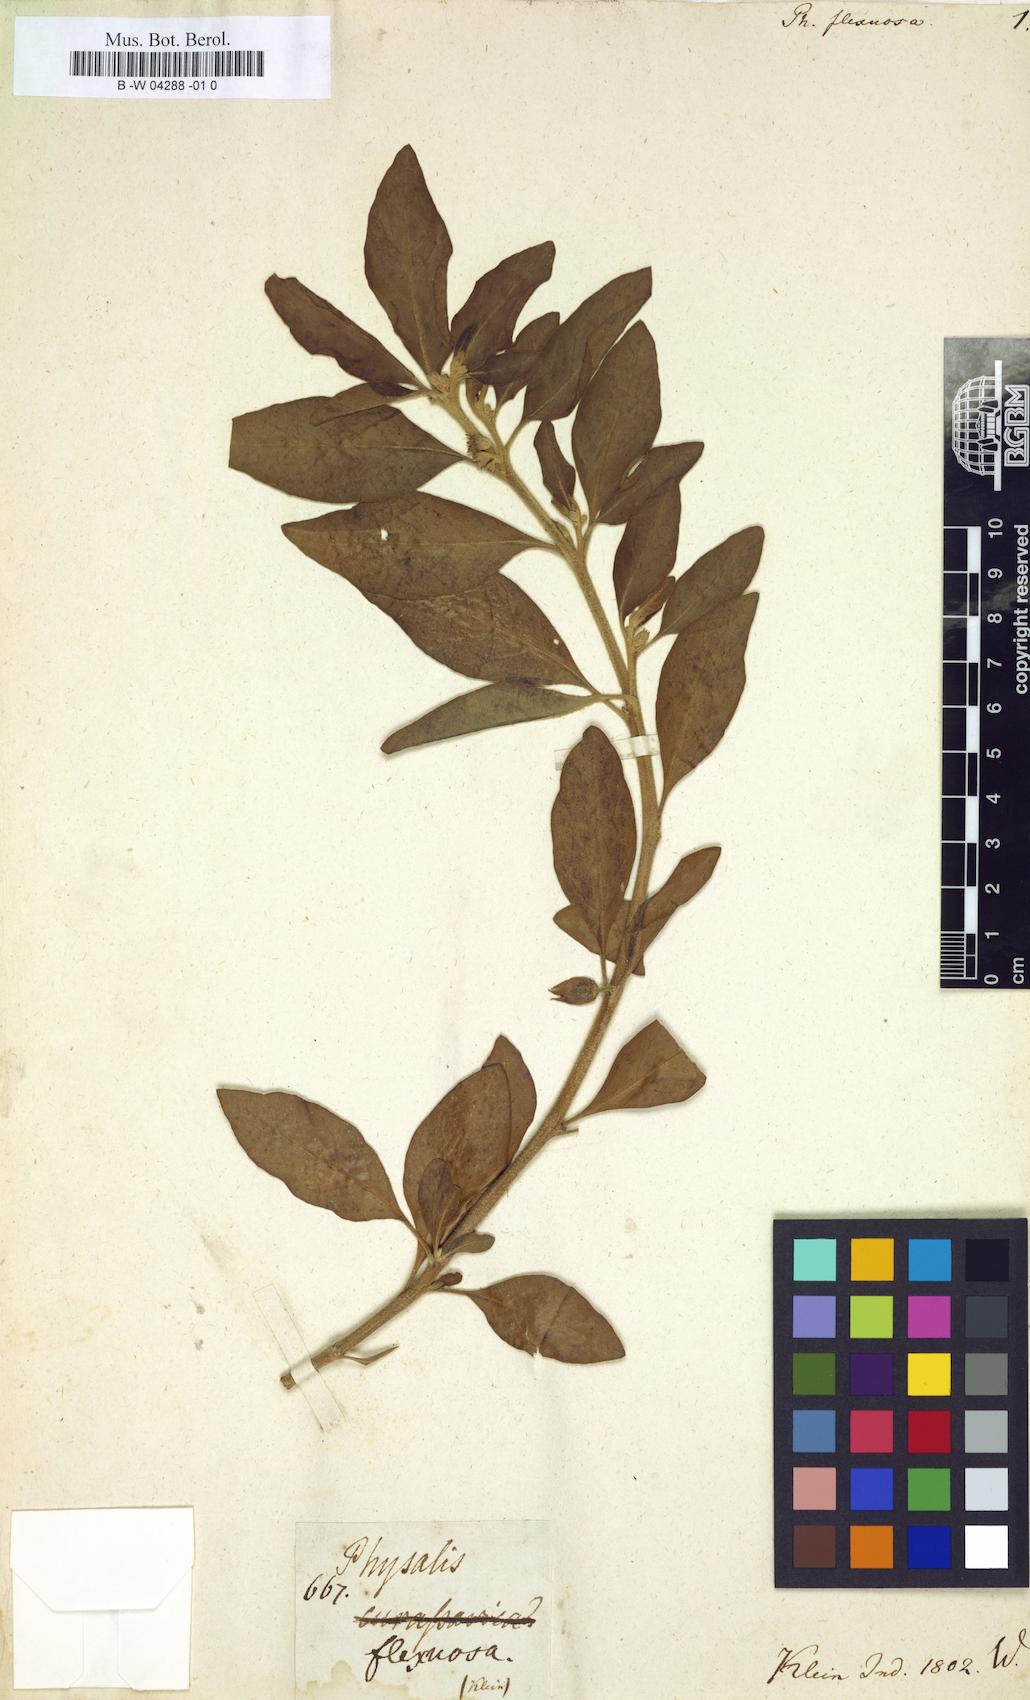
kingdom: Plantae
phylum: Tracheophyta
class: Magnoliopsida
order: Solanales
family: Solanaceae
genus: Withania
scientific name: Withania somnifera
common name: Winter-cherry
